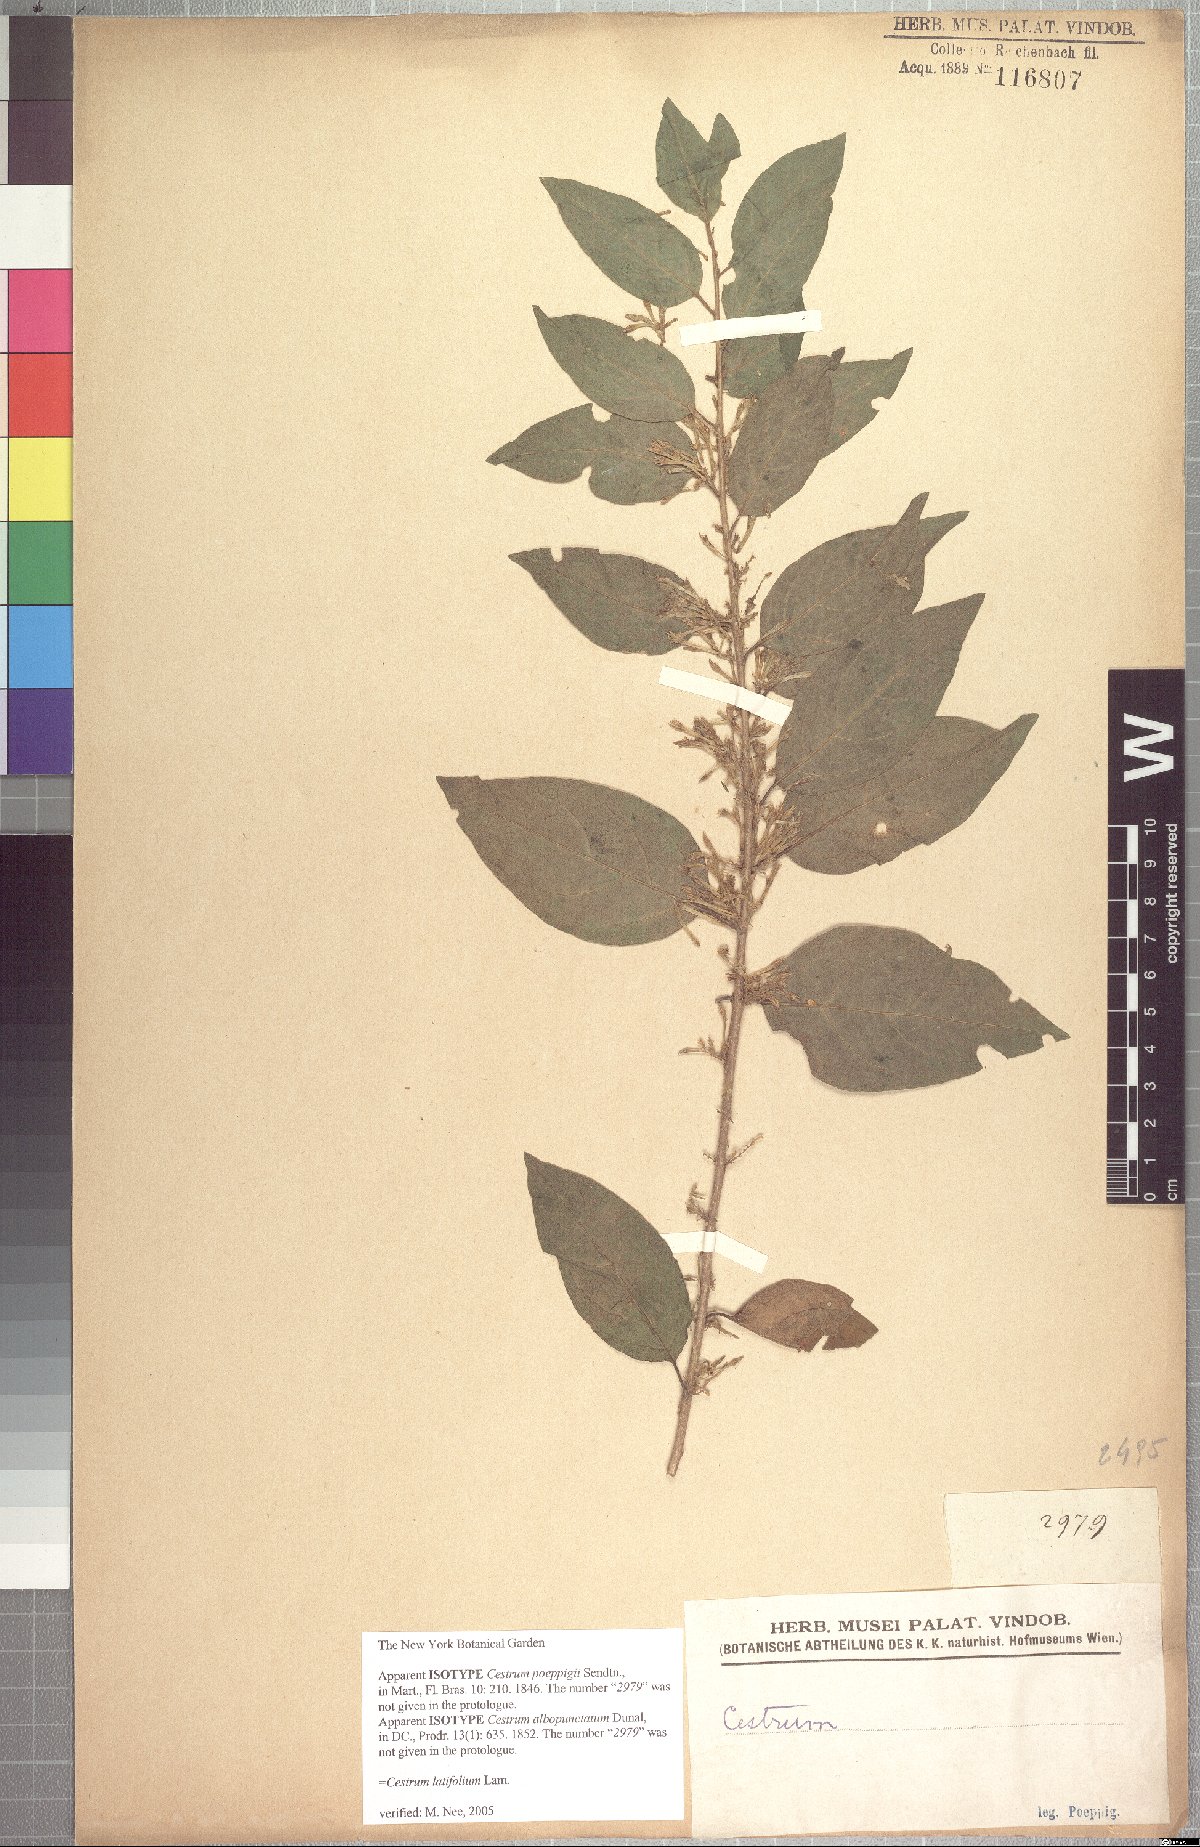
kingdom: Plantae
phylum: Tracheophyta
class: Magnoliopsida
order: Solanales
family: Solanaceae
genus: Cestrum
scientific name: Cestrum latifolium
